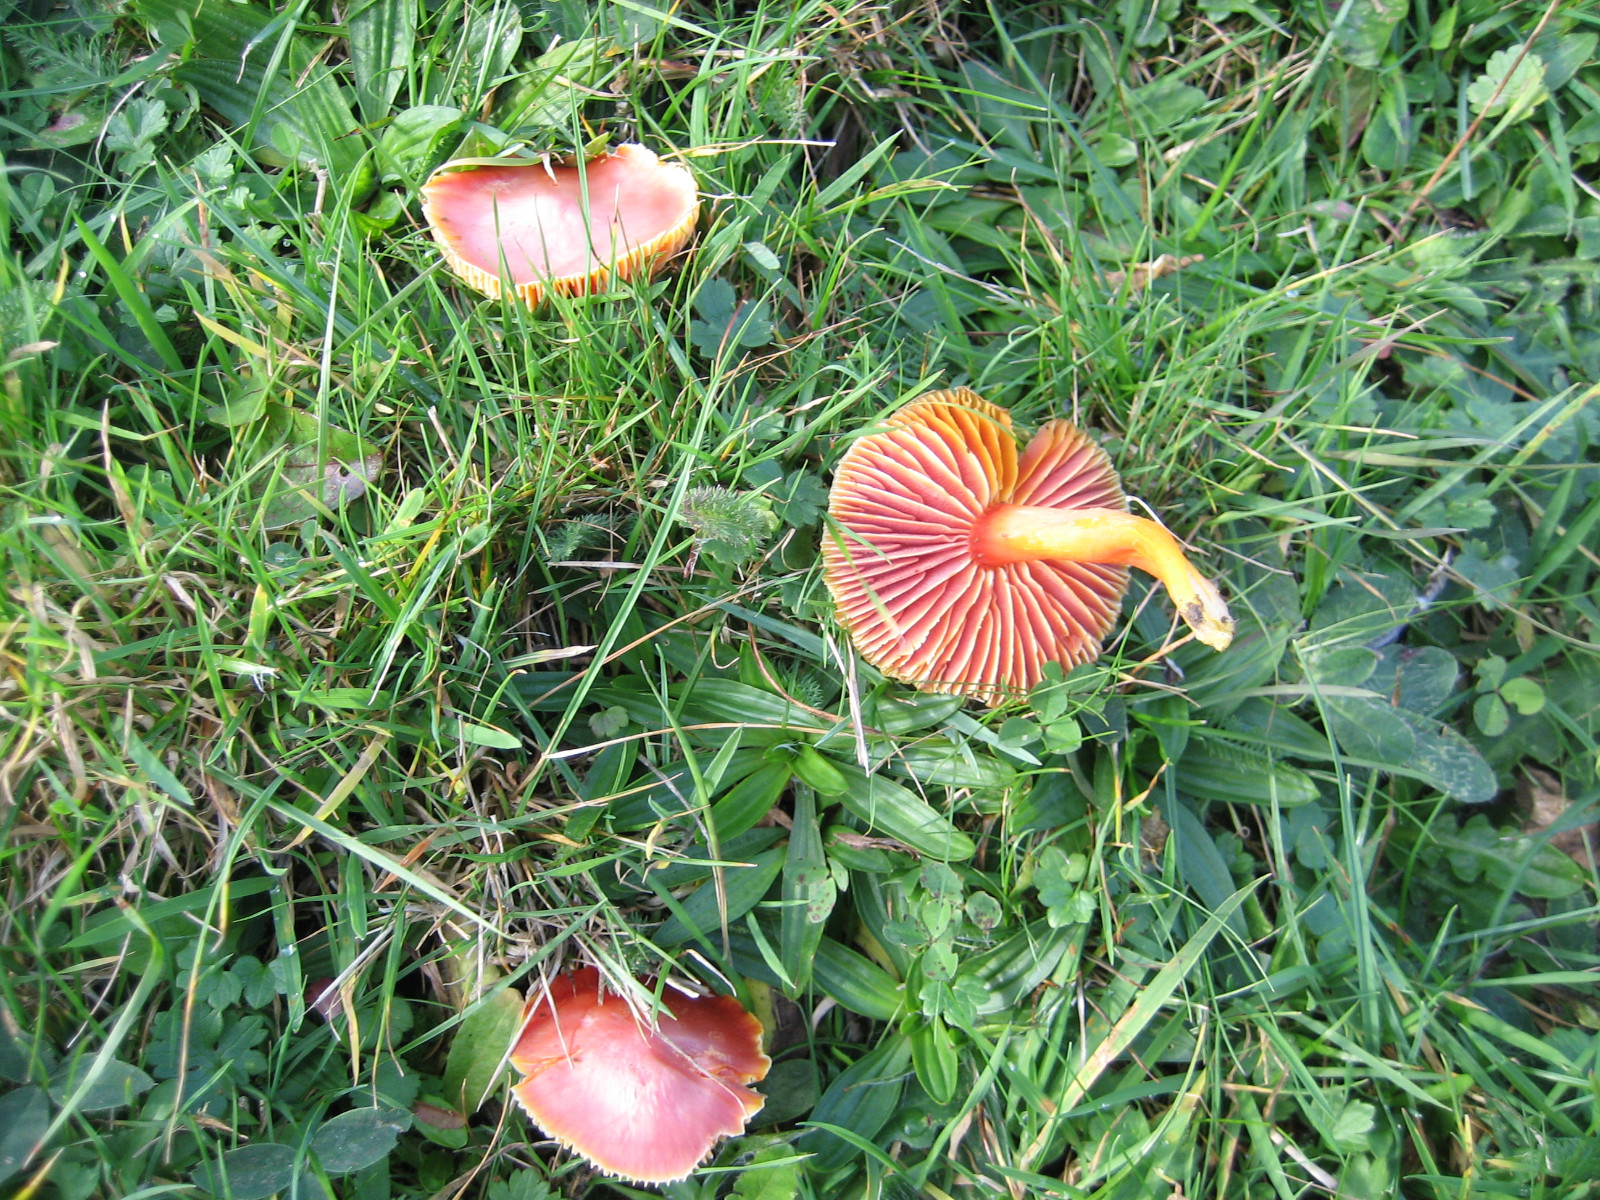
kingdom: Fungi
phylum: Basidiomycota
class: Agaricomycetes
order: Agaricales
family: Hygrophoraceae
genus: Hygrocybe
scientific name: Hygrocybe coccinea
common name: cinnober-vokshat
